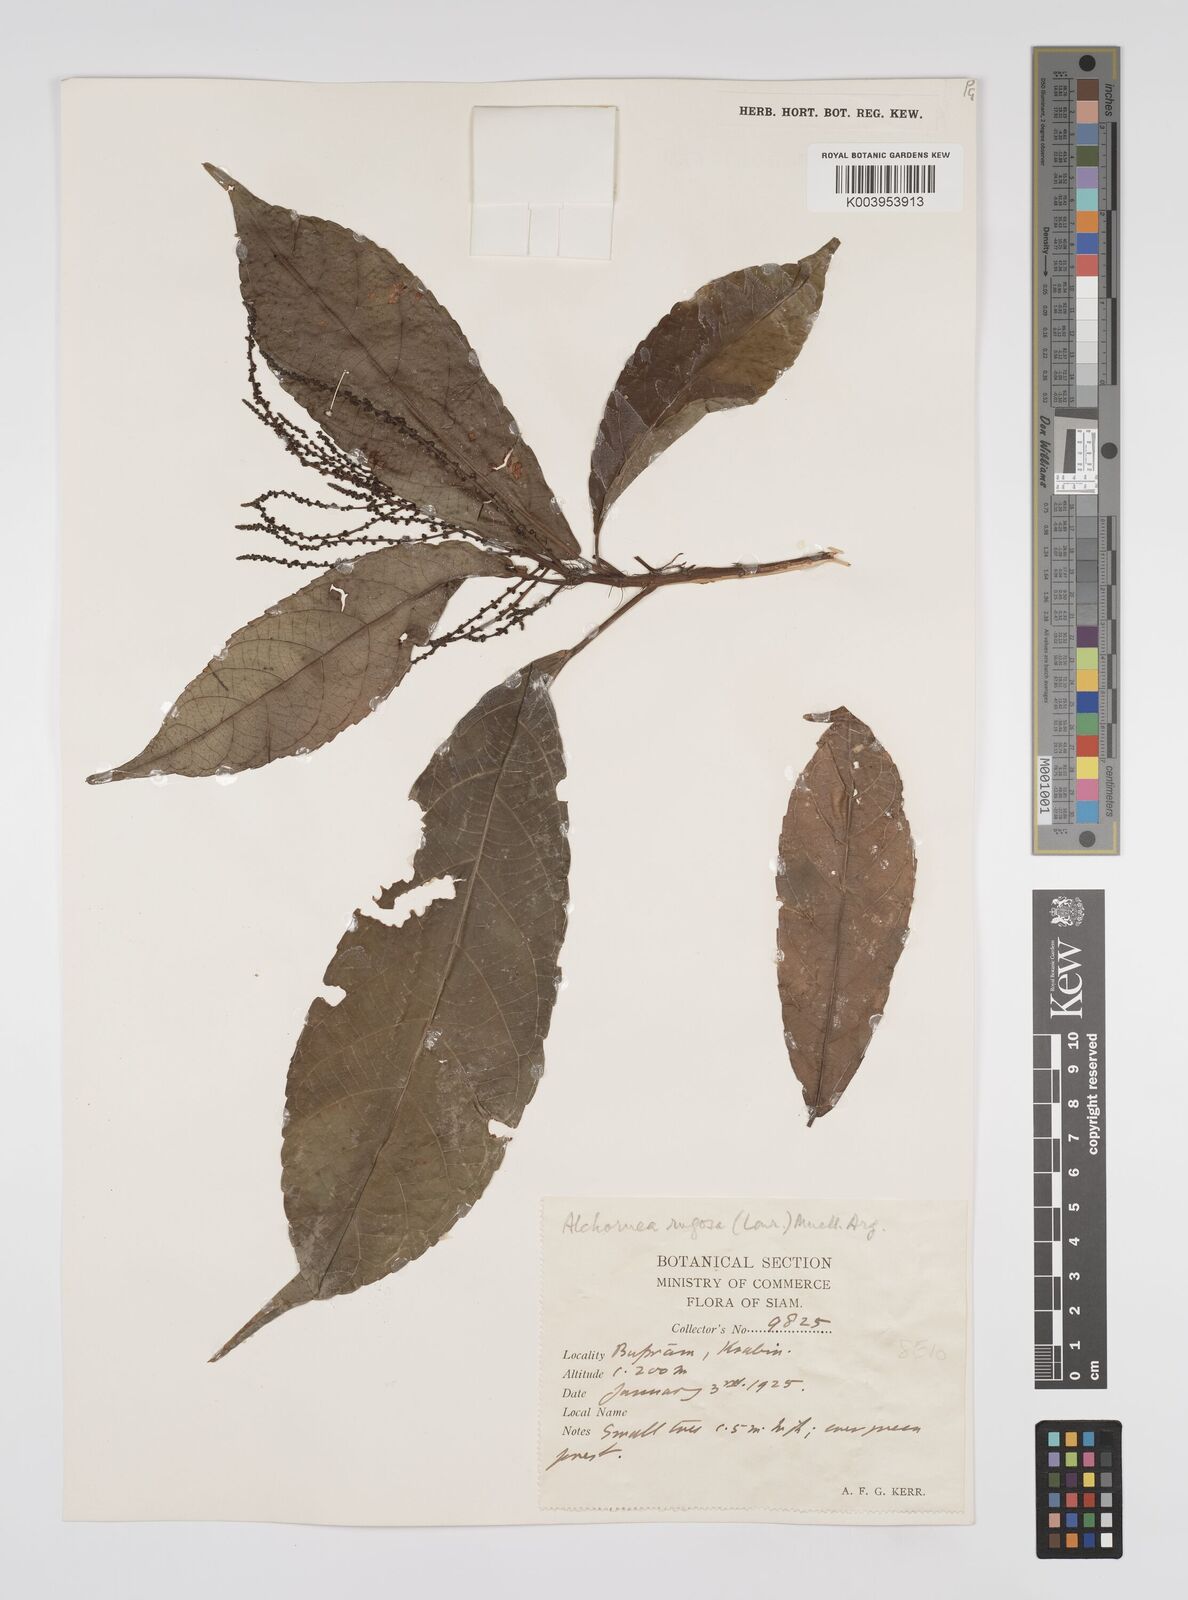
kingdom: Plantae
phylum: Tracheophyta
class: Magnoliopsida
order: Malpighiales
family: Euphorbiaceae
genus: Alchornea
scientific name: Alchornea rugosa
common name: Alchorntree
